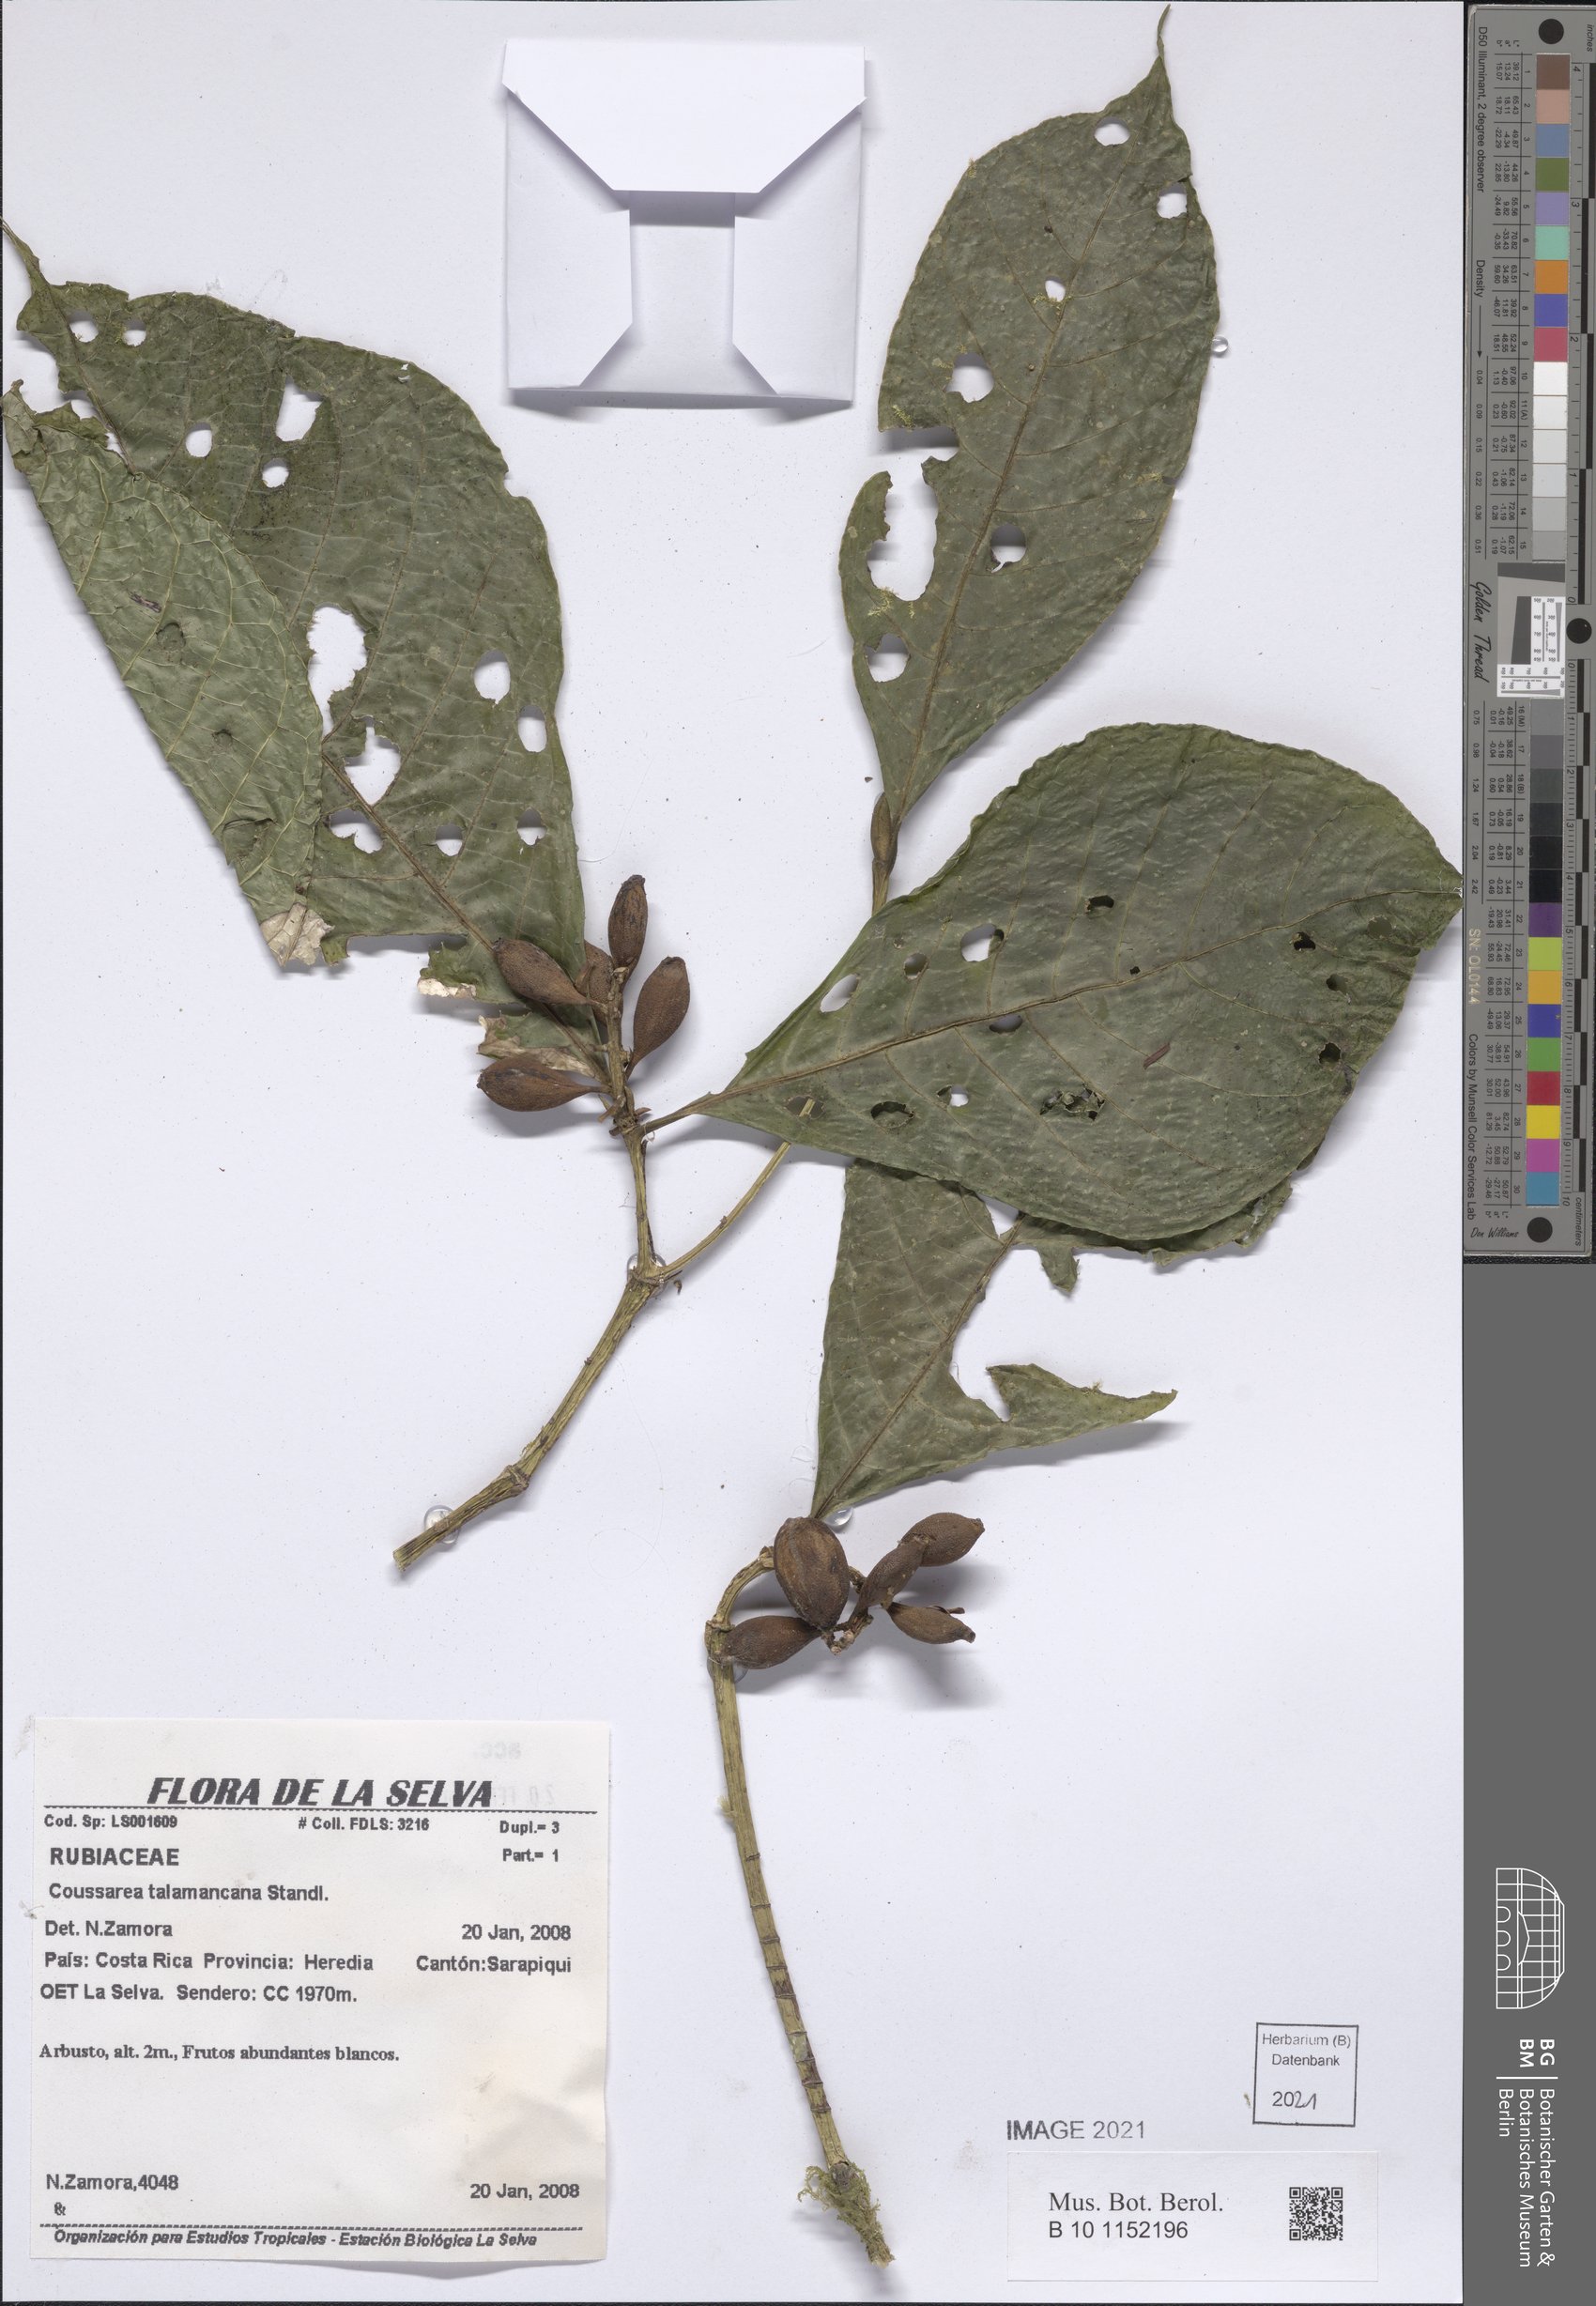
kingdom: Plantae
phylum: Tracheophyta
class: Magnoliopsida
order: Gentianales
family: Rubiaceae
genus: Coussarea
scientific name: Coussarea talamancana
